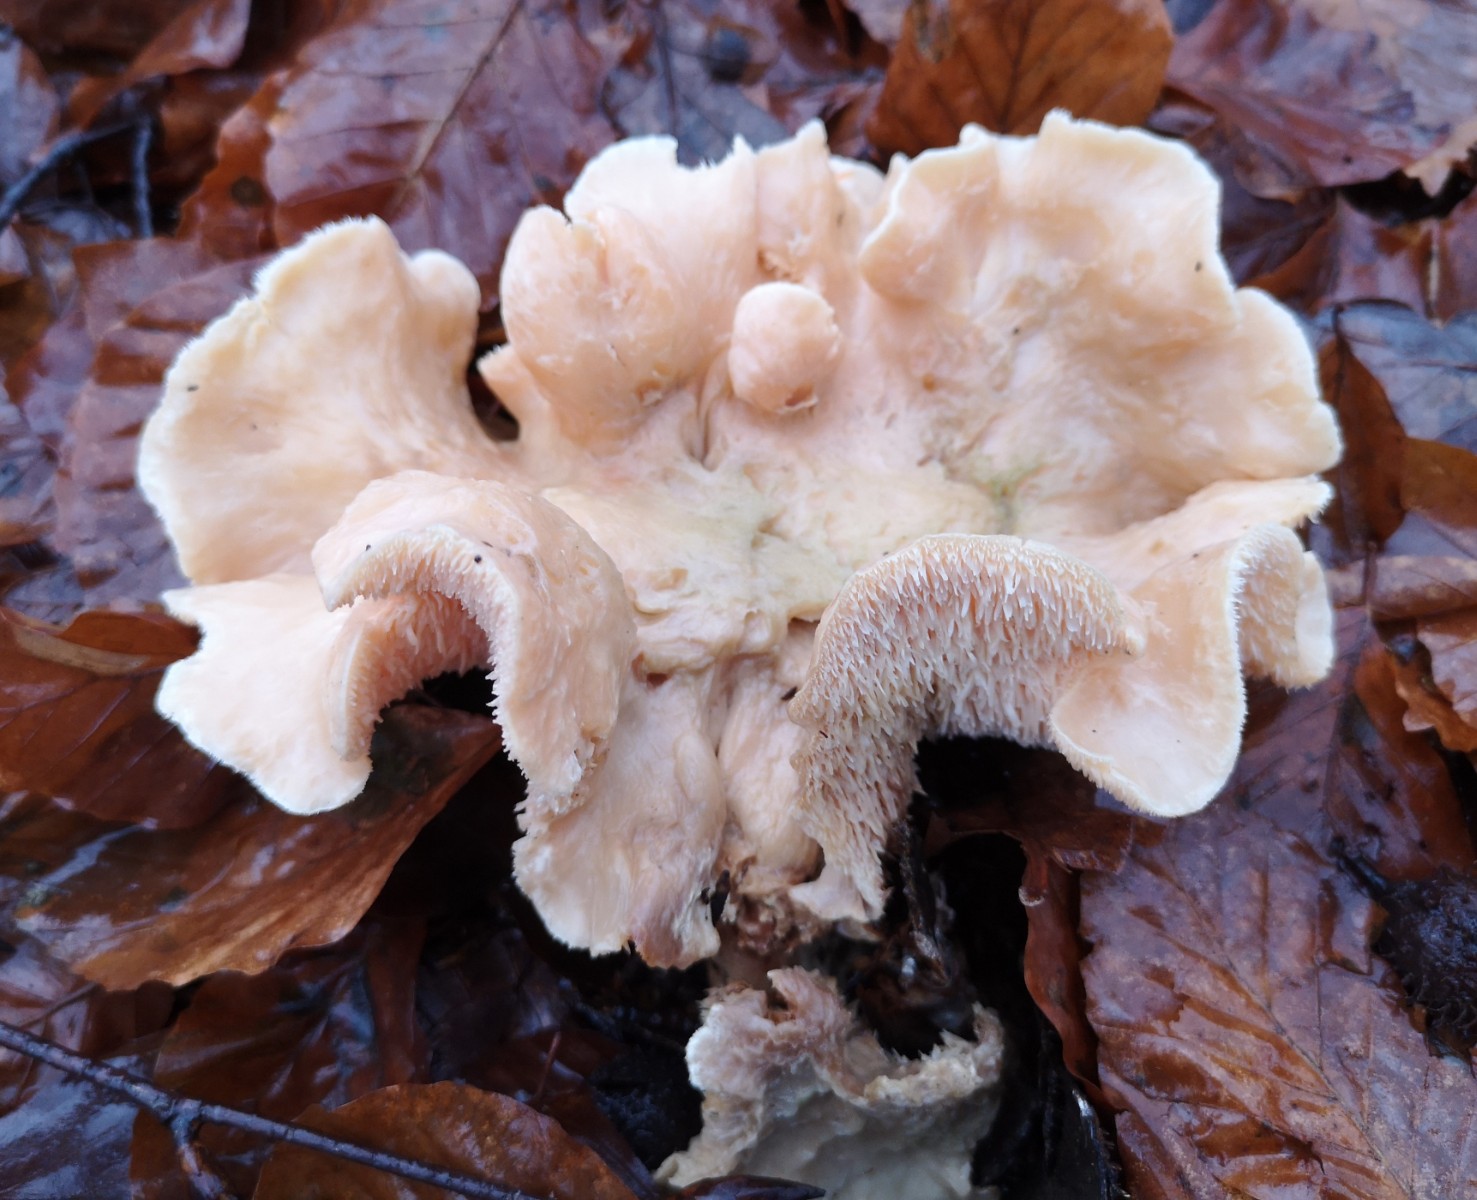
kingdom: Fungi
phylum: Basidiomycota
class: Agaricomycetes
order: Cantharellales
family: Hydnaceae
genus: Hydnum
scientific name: Hydnum
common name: pigsvamp
